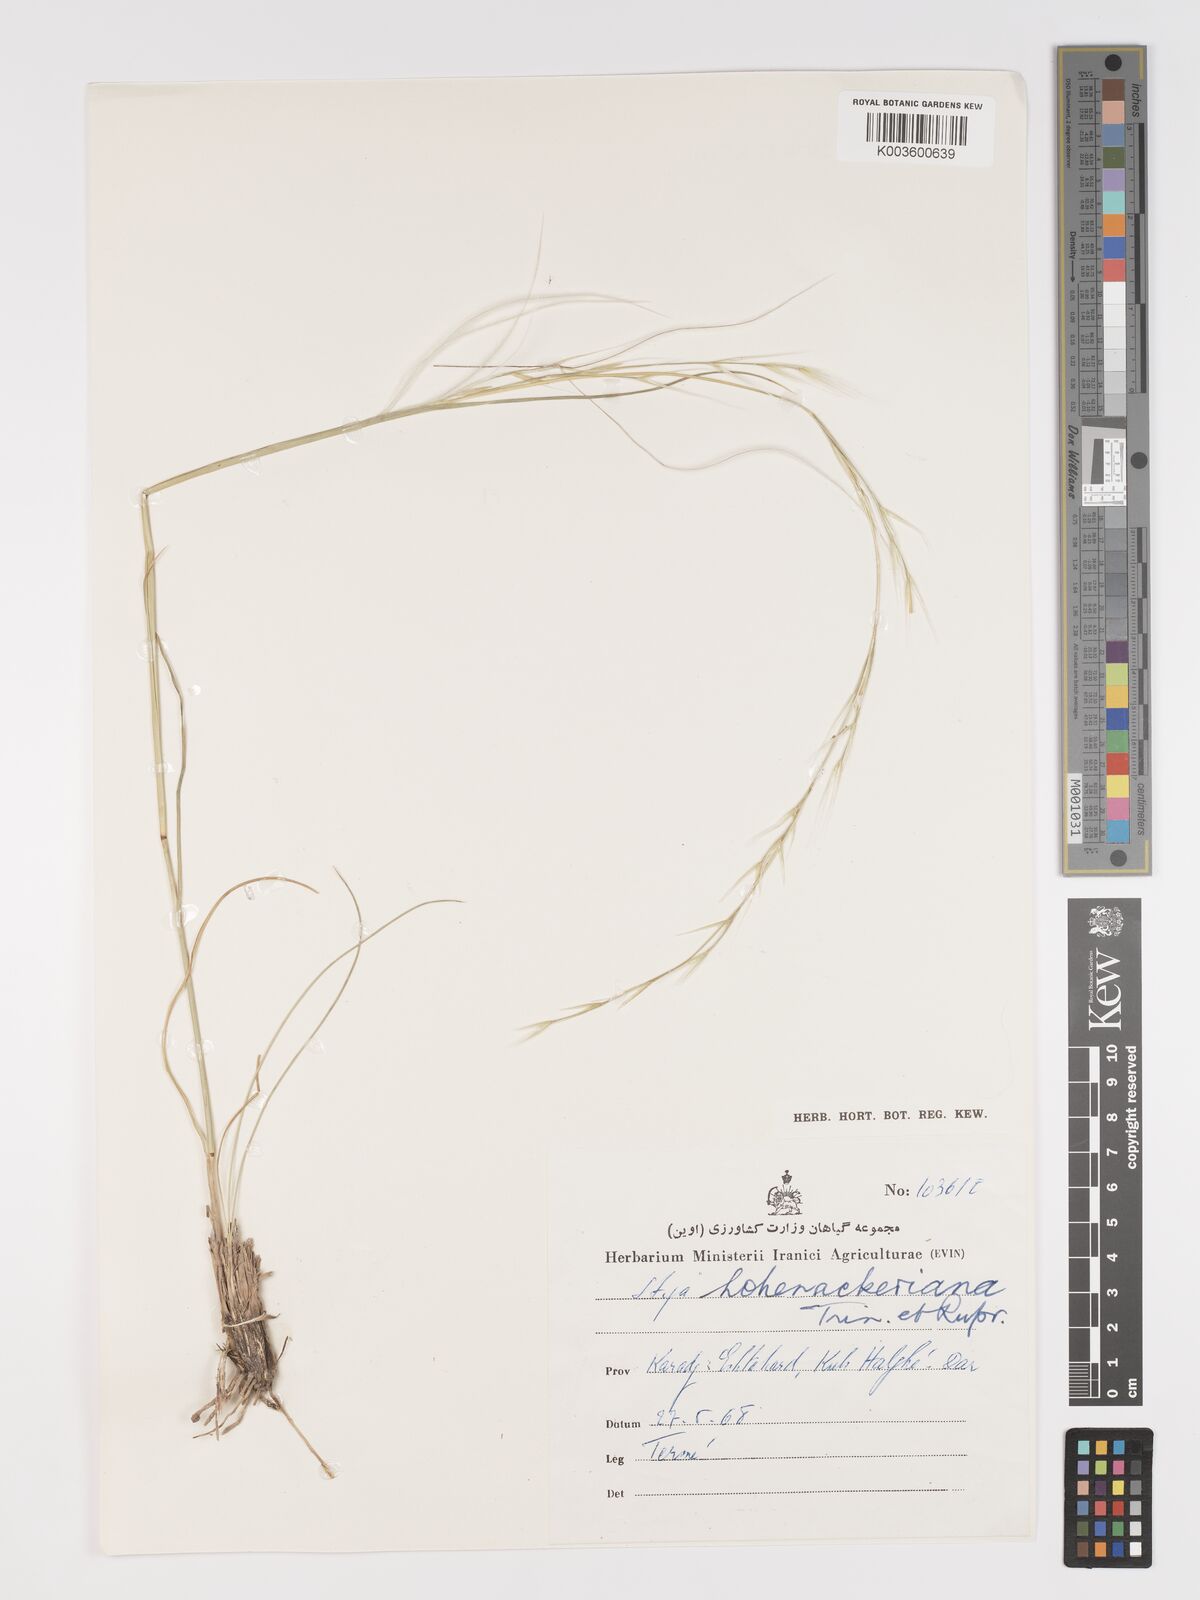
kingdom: Plantae
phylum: Tracheophyta
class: Liliopsida
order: Poales
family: Poaceae
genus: Stipa
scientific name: Stipa hohenackeriana
